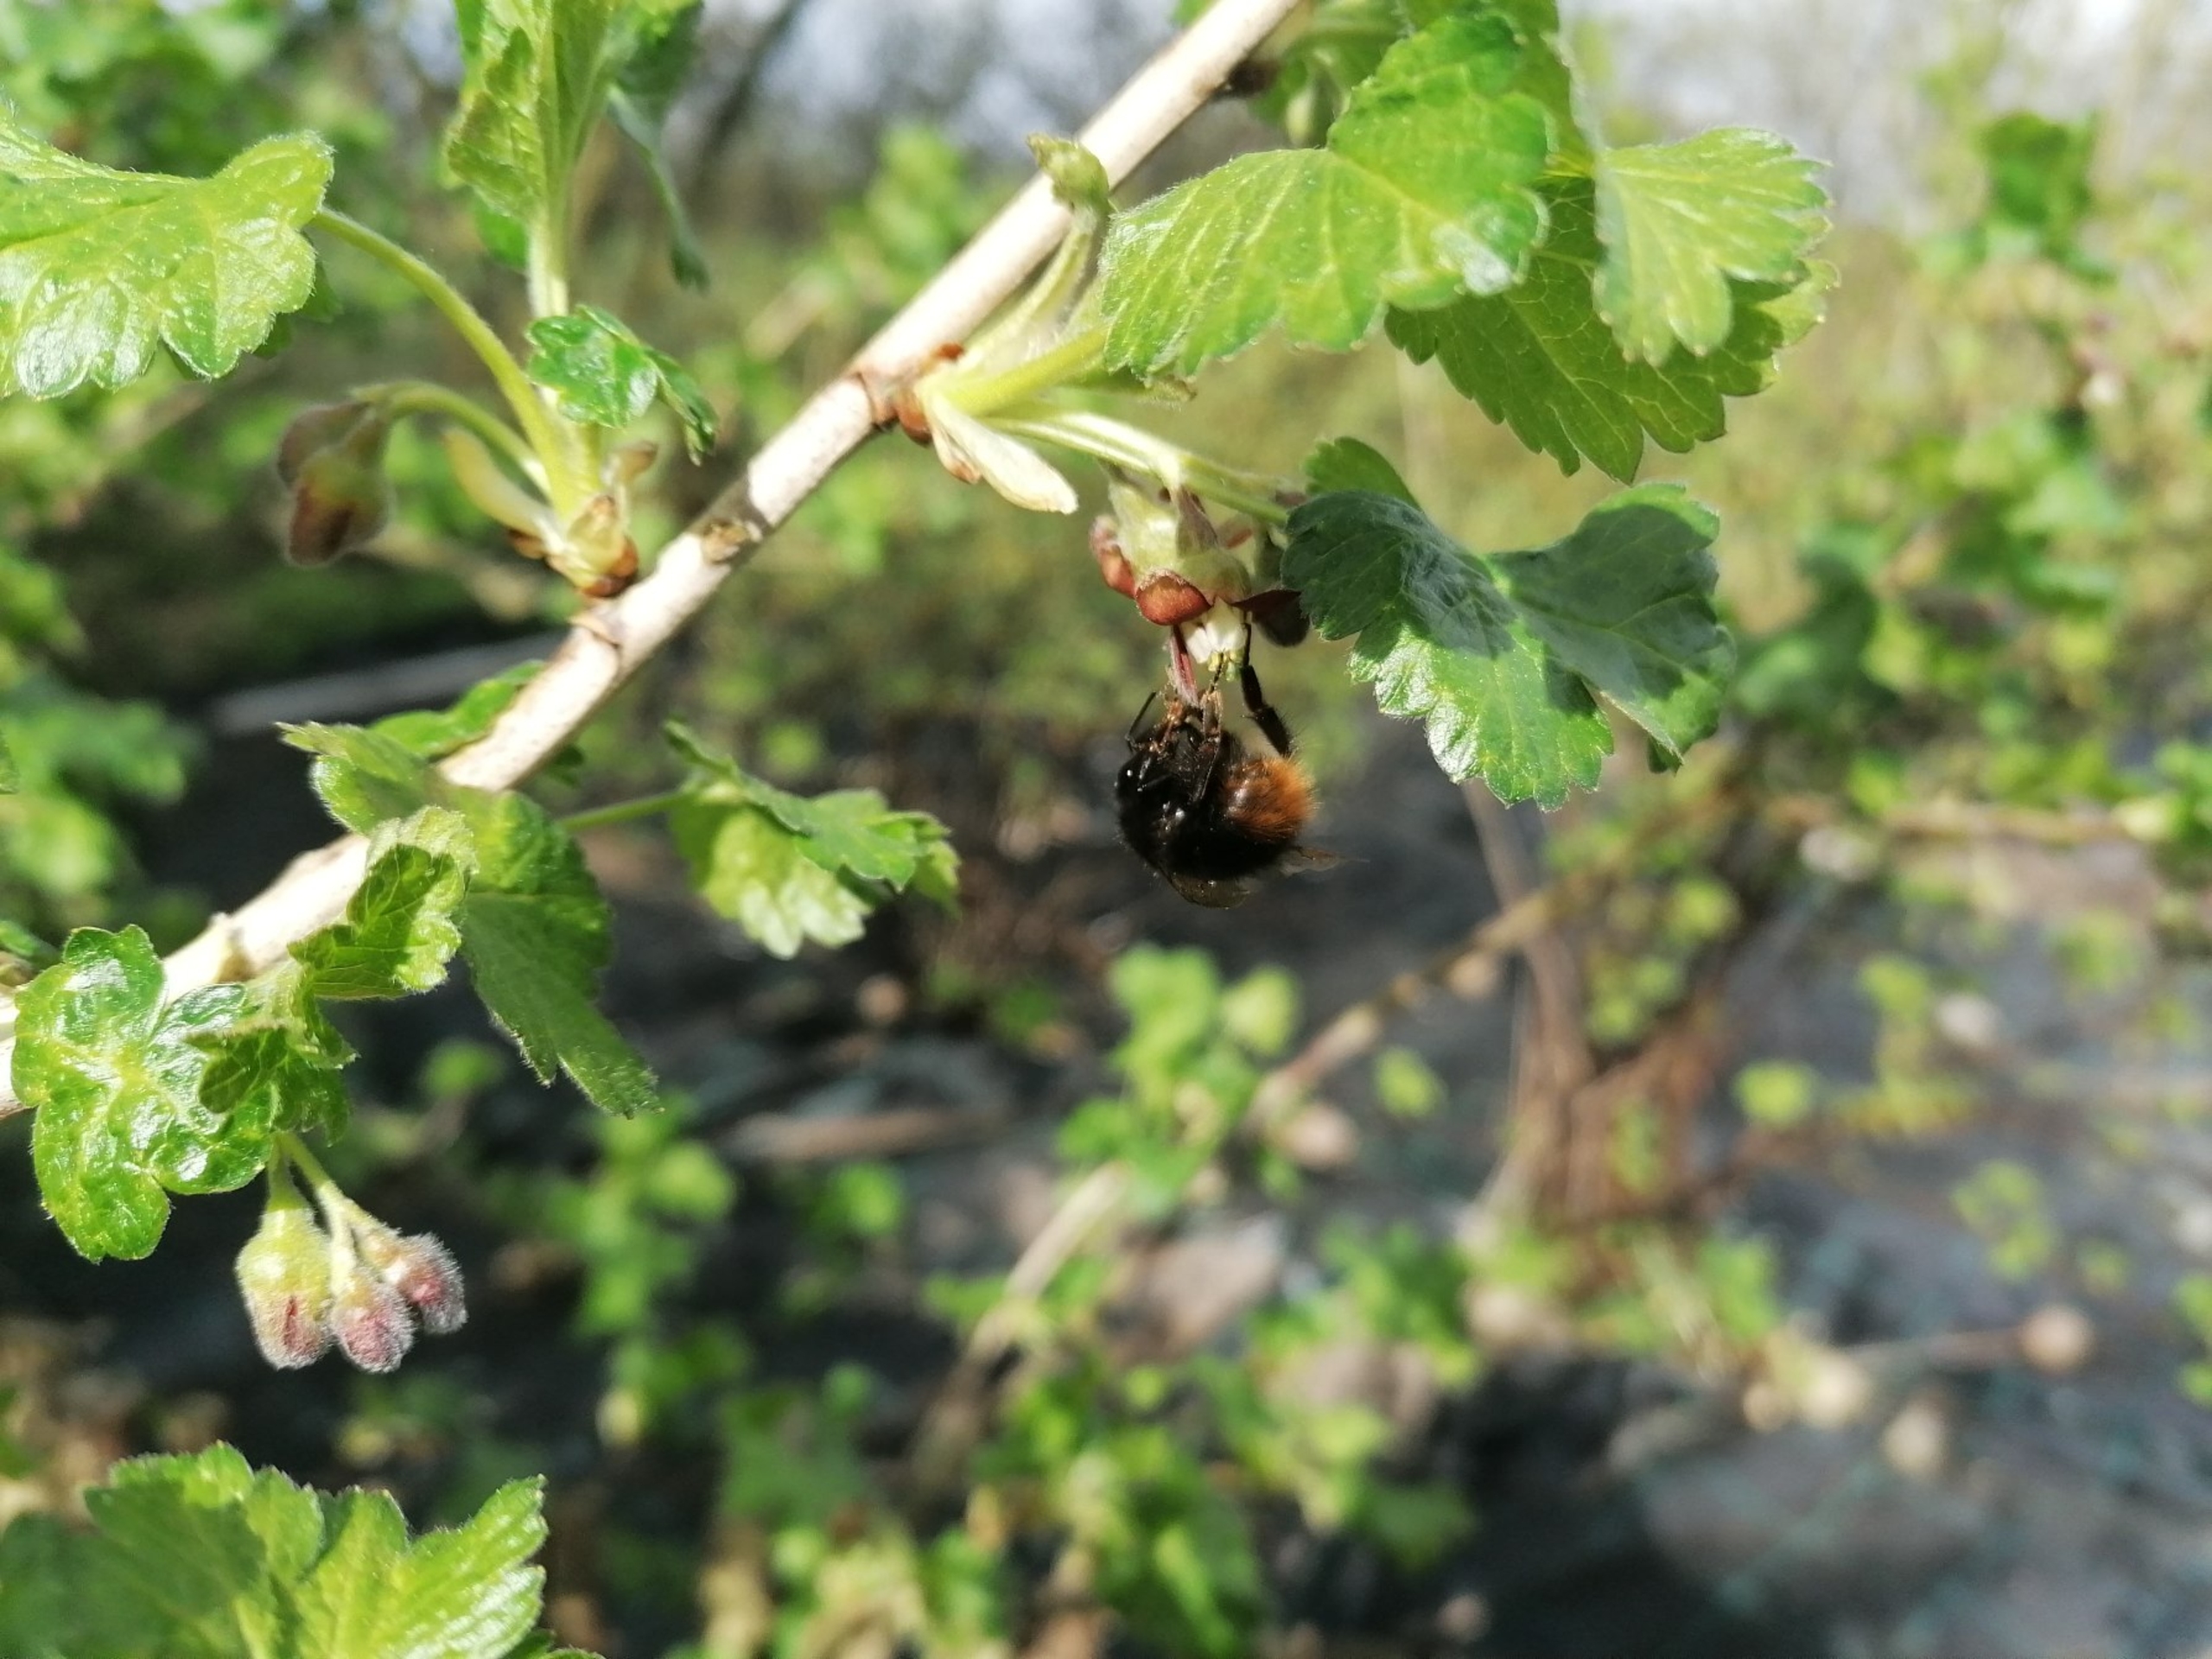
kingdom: Animalia
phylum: Arthropoda
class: Insecta
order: Hymenoptera
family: Apidae
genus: Bombus
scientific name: Bombus lapidarius
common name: Stenhumle
